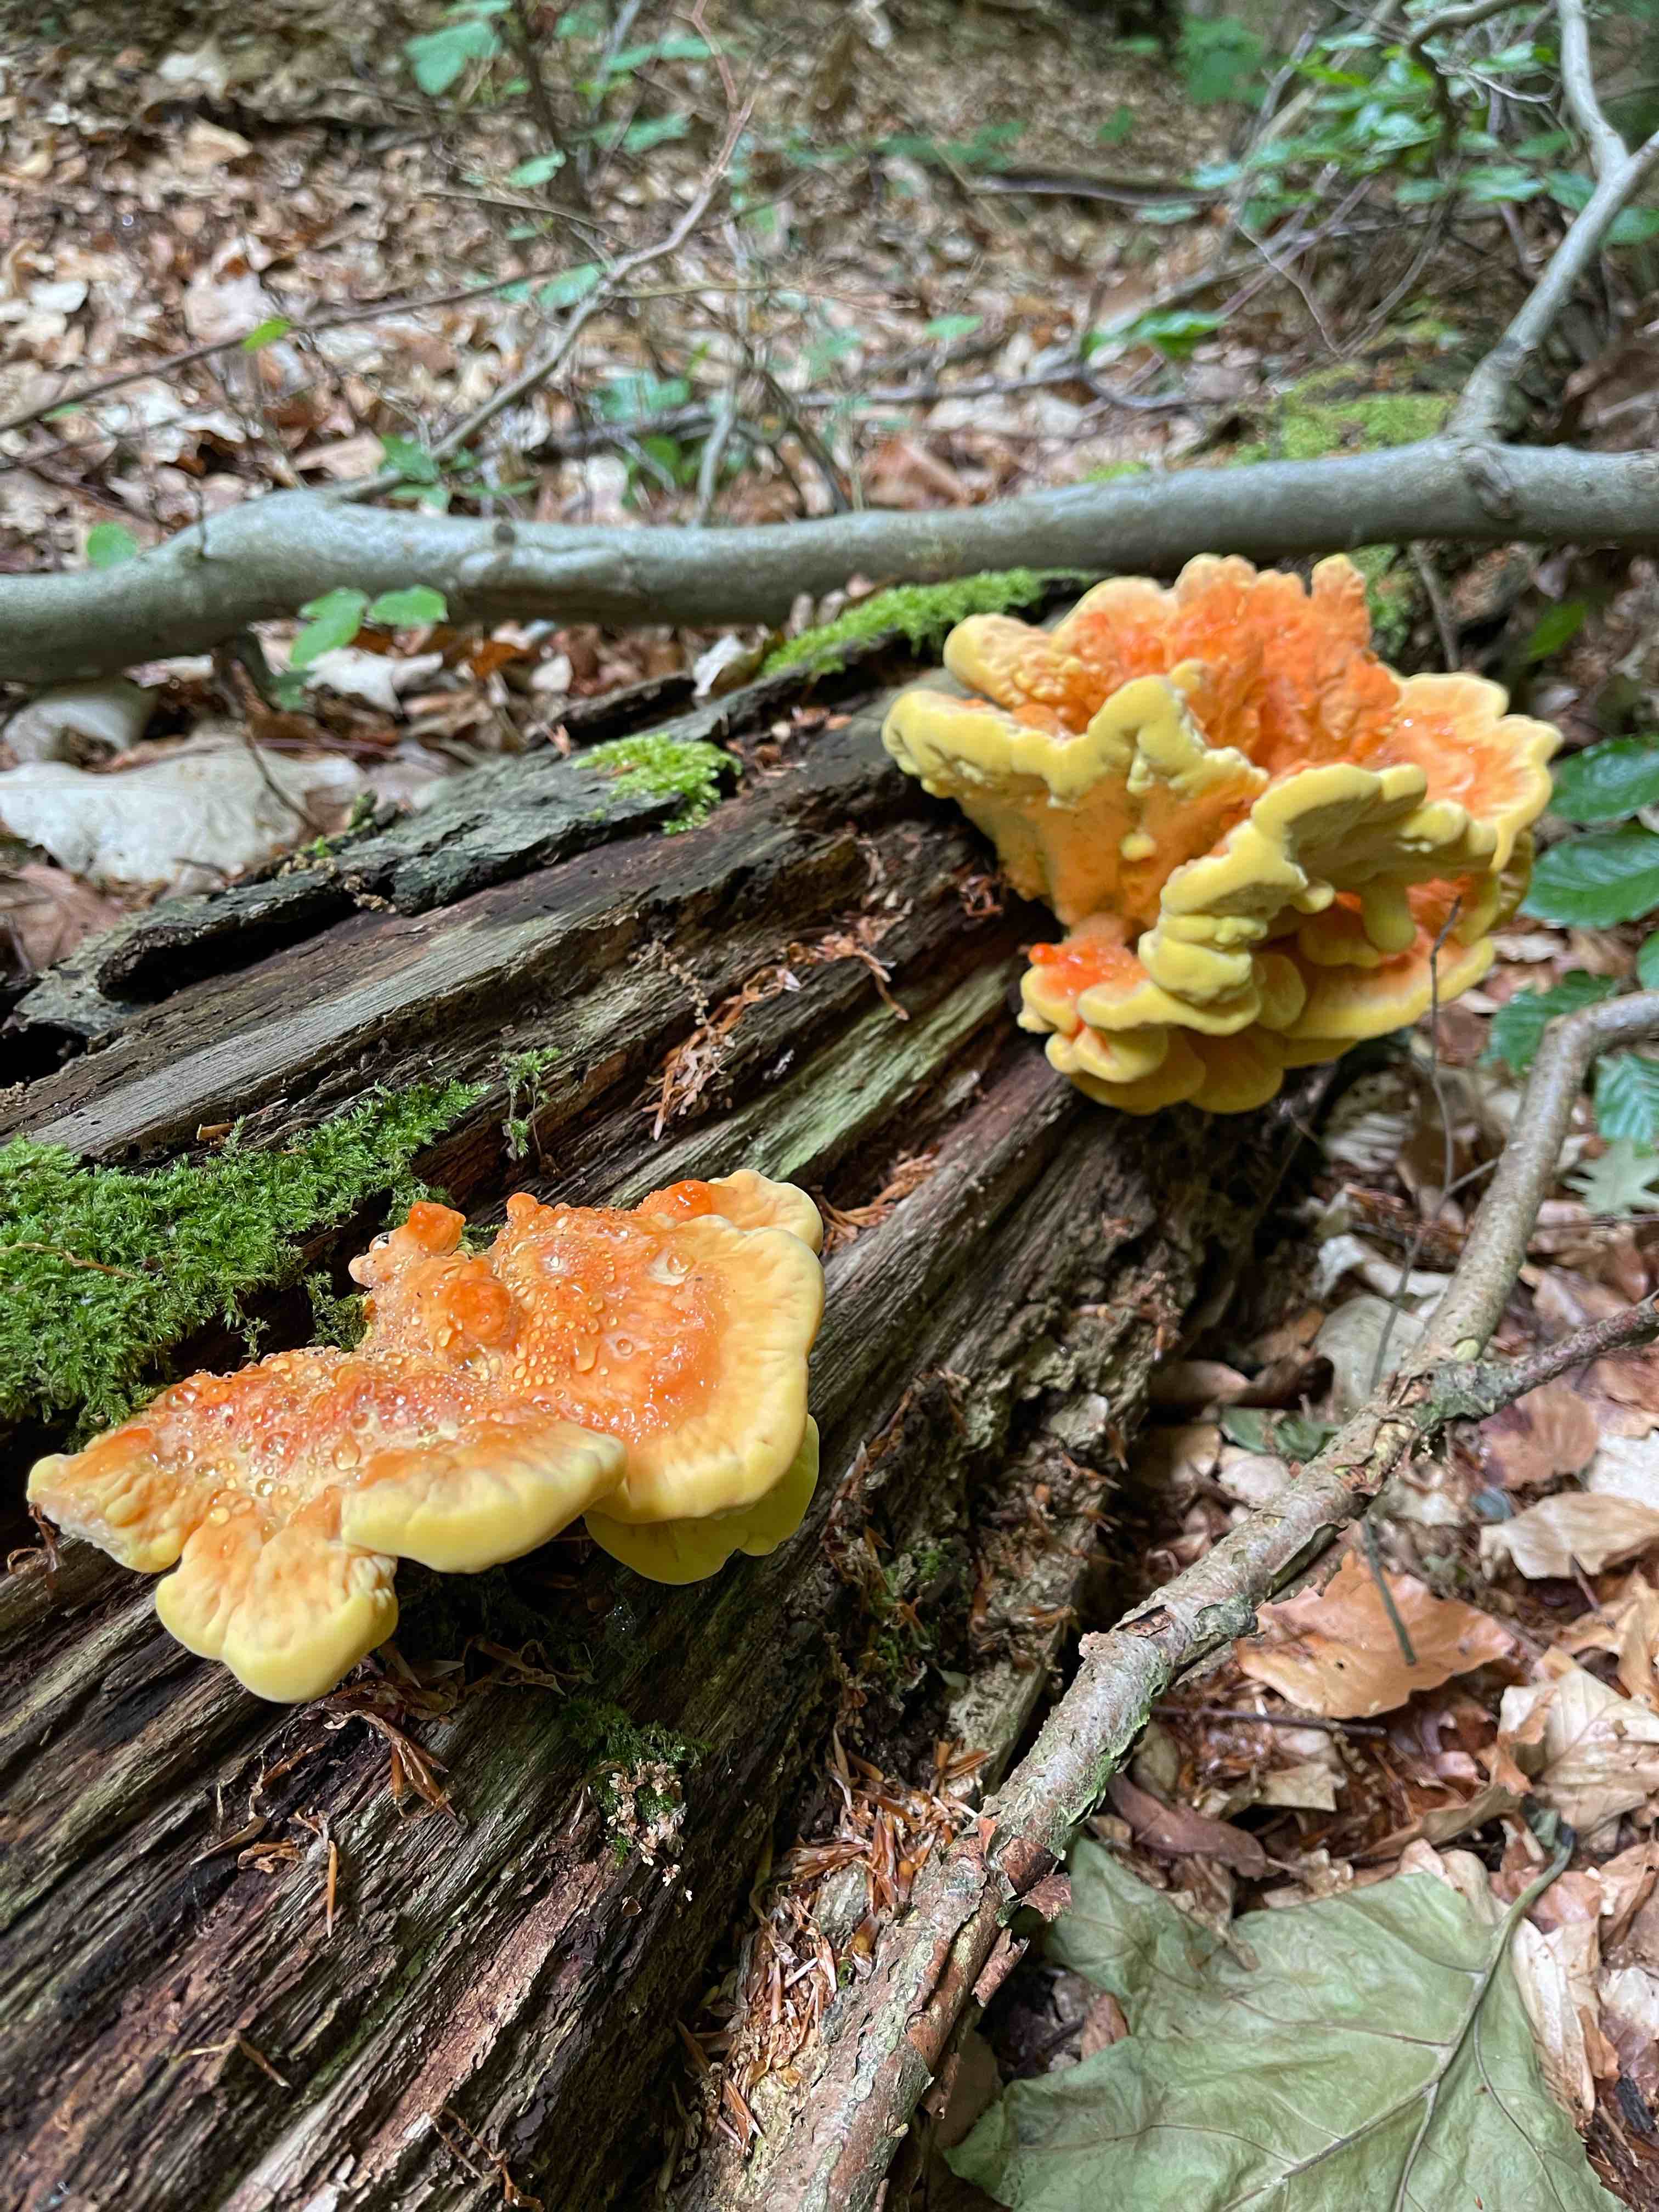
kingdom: Fungi
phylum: Basidiomycota
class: Agaricomycetes
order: Polyporales
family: Laetiporaceae
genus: Laetiporus
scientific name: Laetiporus sulphureus
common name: svovlporesvamp
